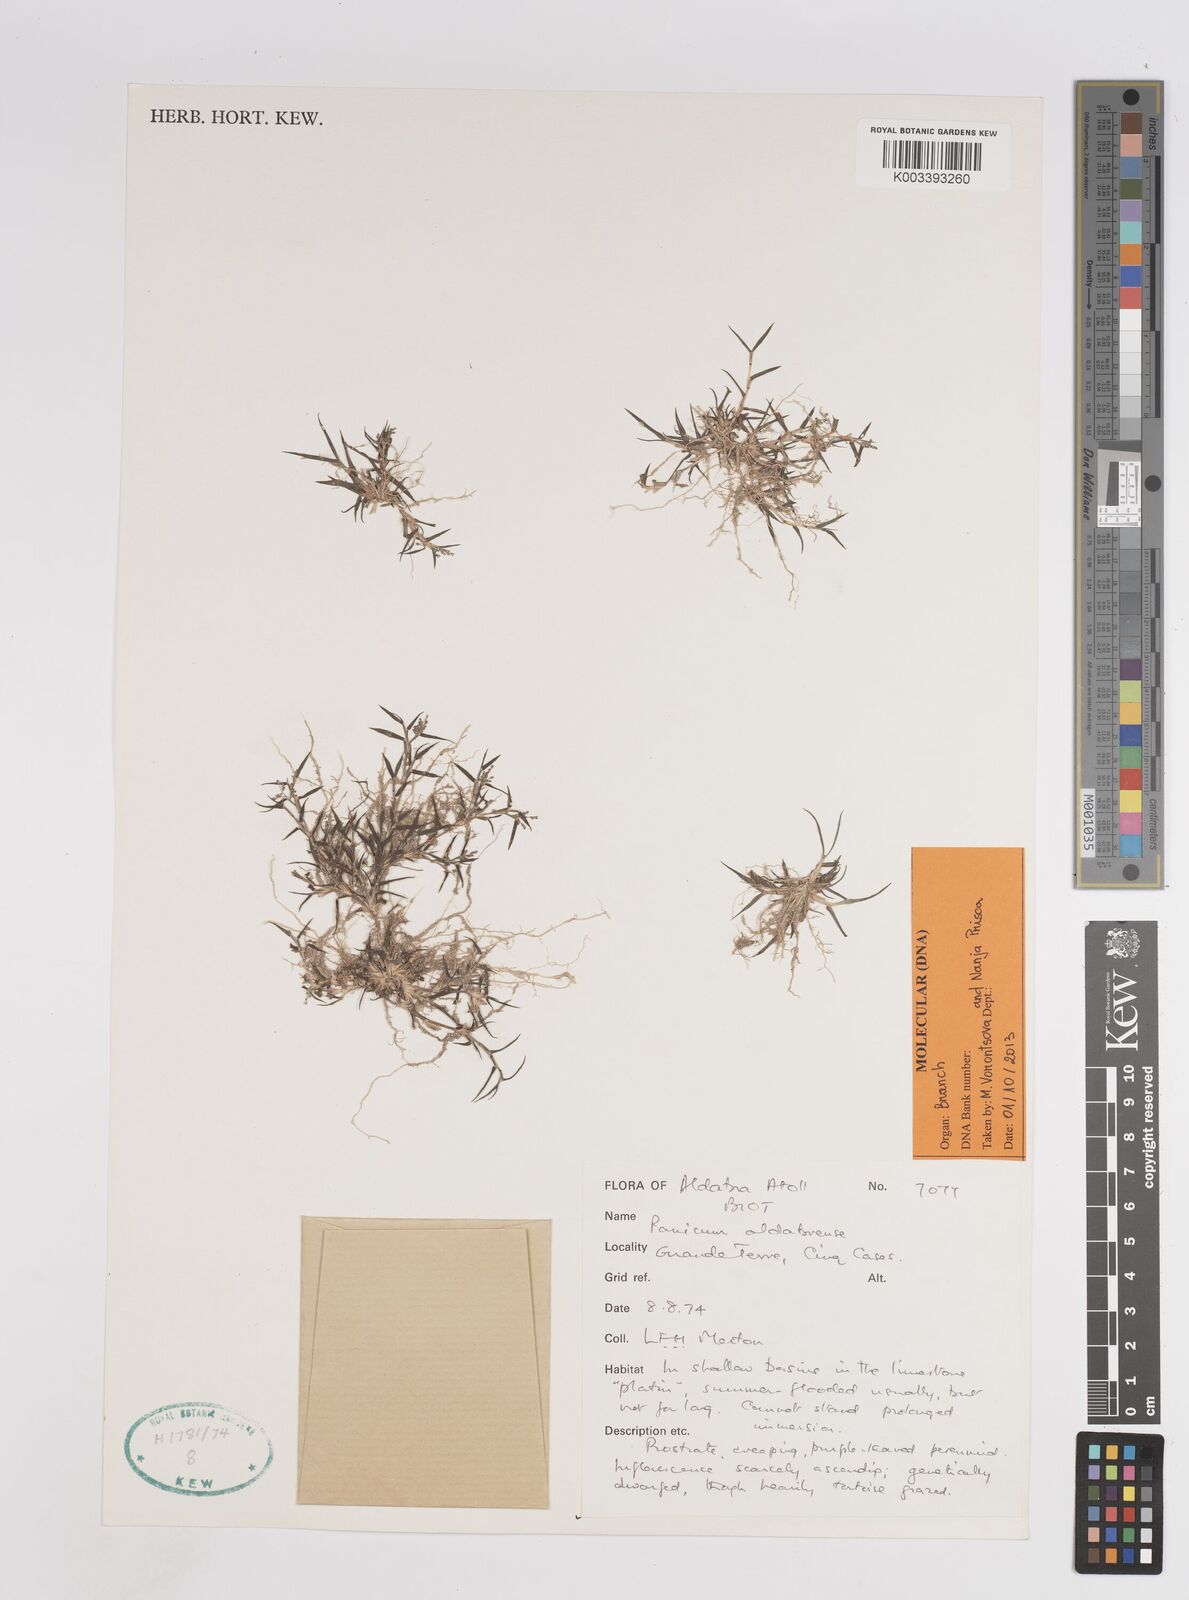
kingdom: Plantae
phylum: Tracheophyta
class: Liliopsida
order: Poales
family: Poaceae
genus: Panicum
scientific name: Panicum aldabrense
